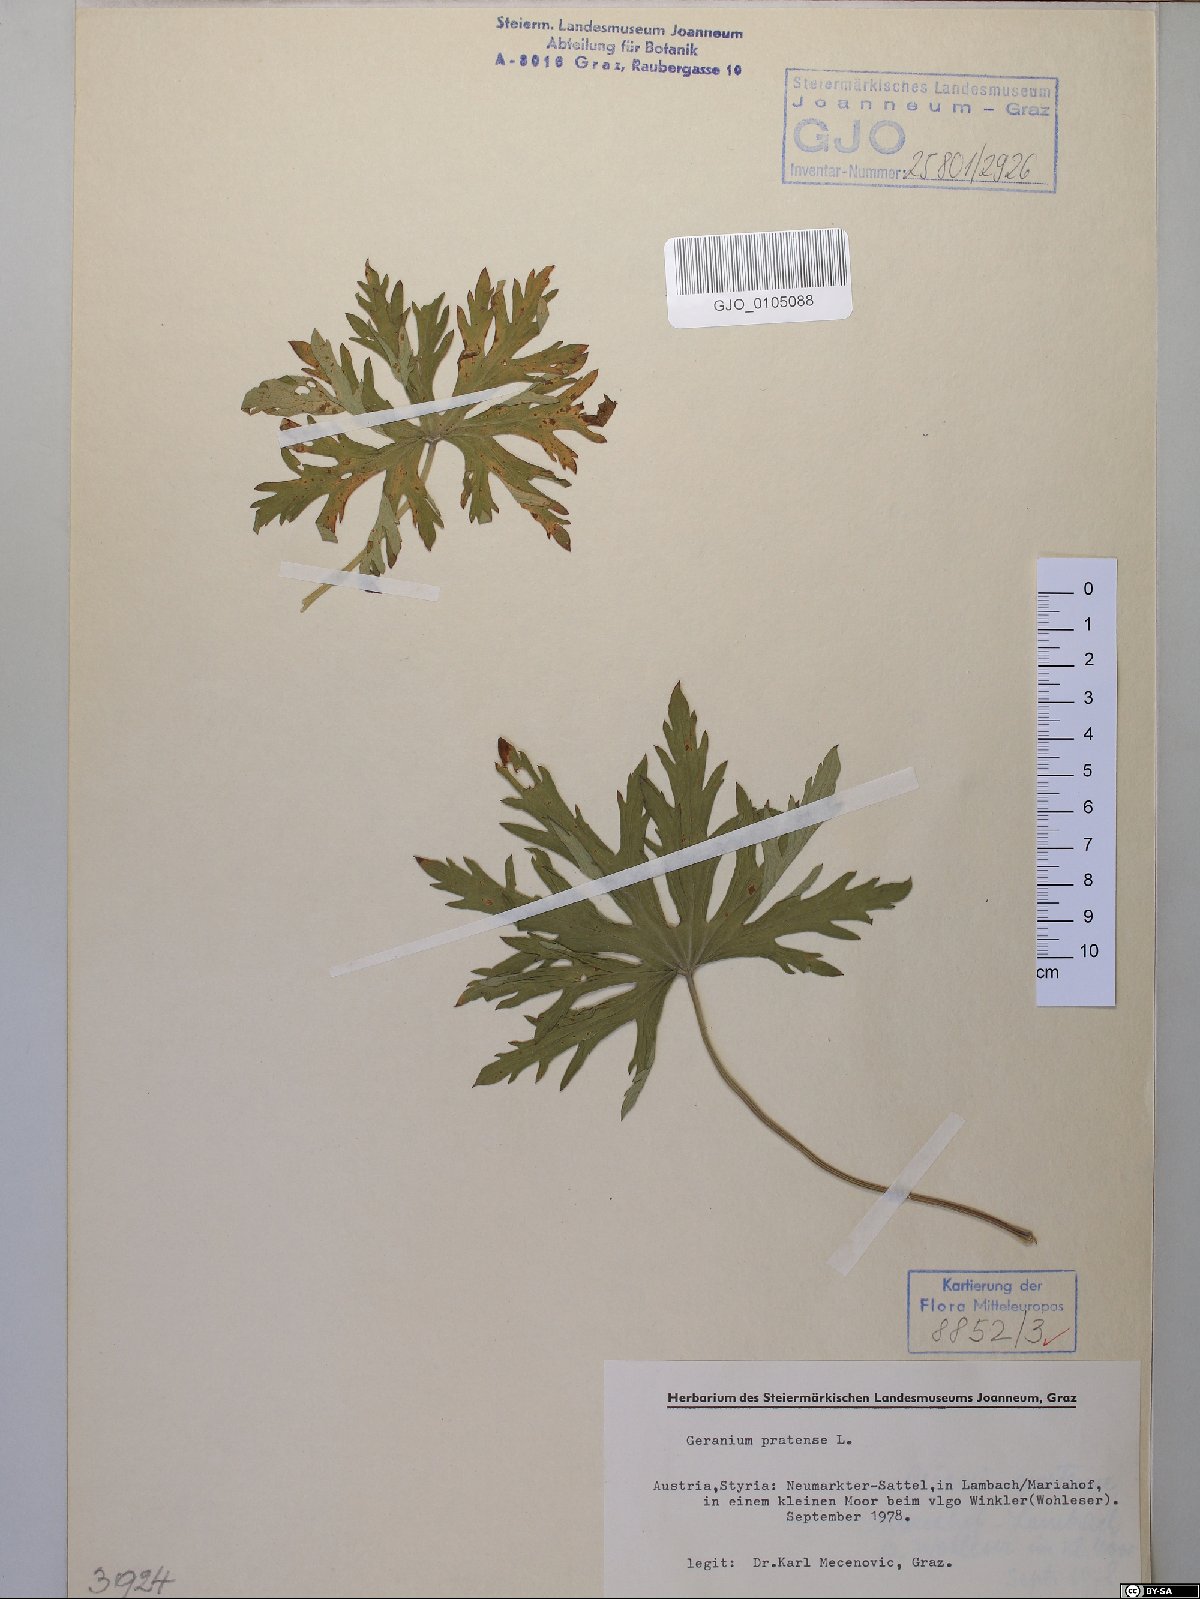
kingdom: Plantae
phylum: Tracheophyta
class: Magnoliopsida
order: Geraniales
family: Geraniaceae
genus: Geranium
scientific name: Geranium pratense
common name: Meadow crane's-bill
